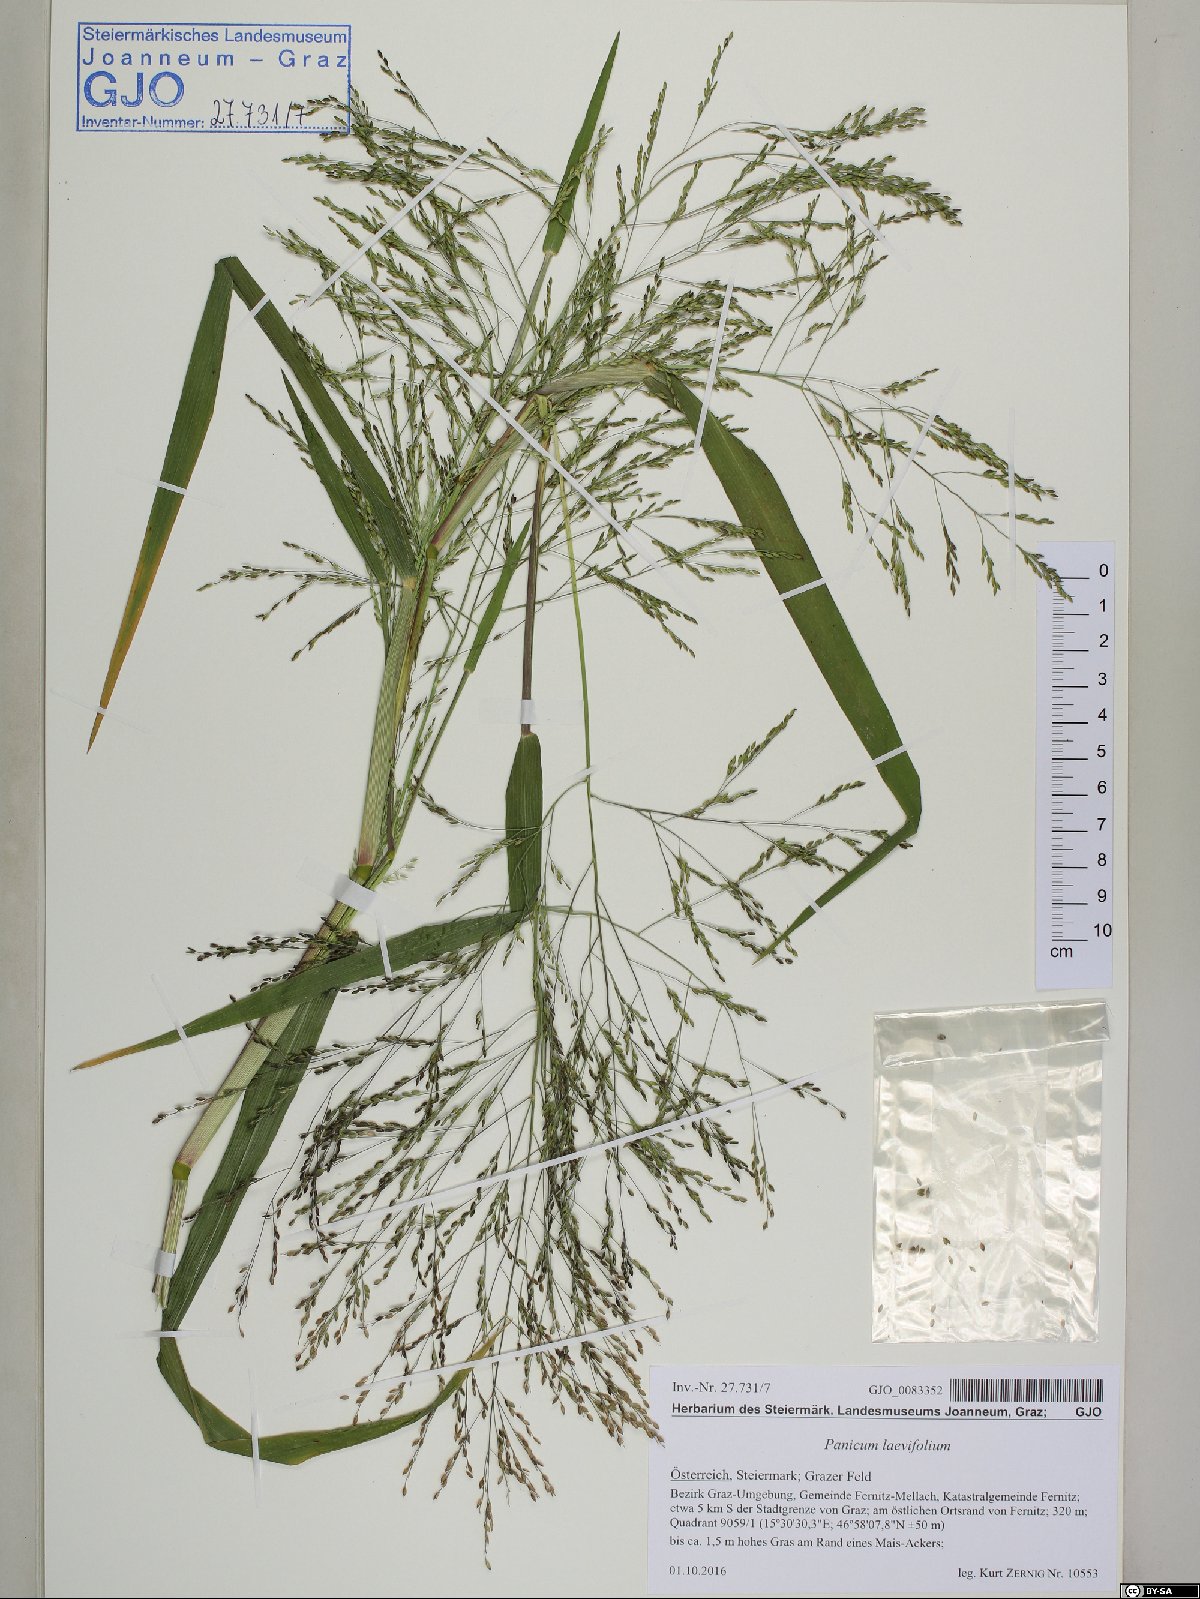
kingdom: Plantae
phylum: Tracheophyta
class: Liliopsida
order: Poales
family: Poaceae
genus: Panicum
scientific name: Panicum dichotomiflorum
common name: Autumn millet
